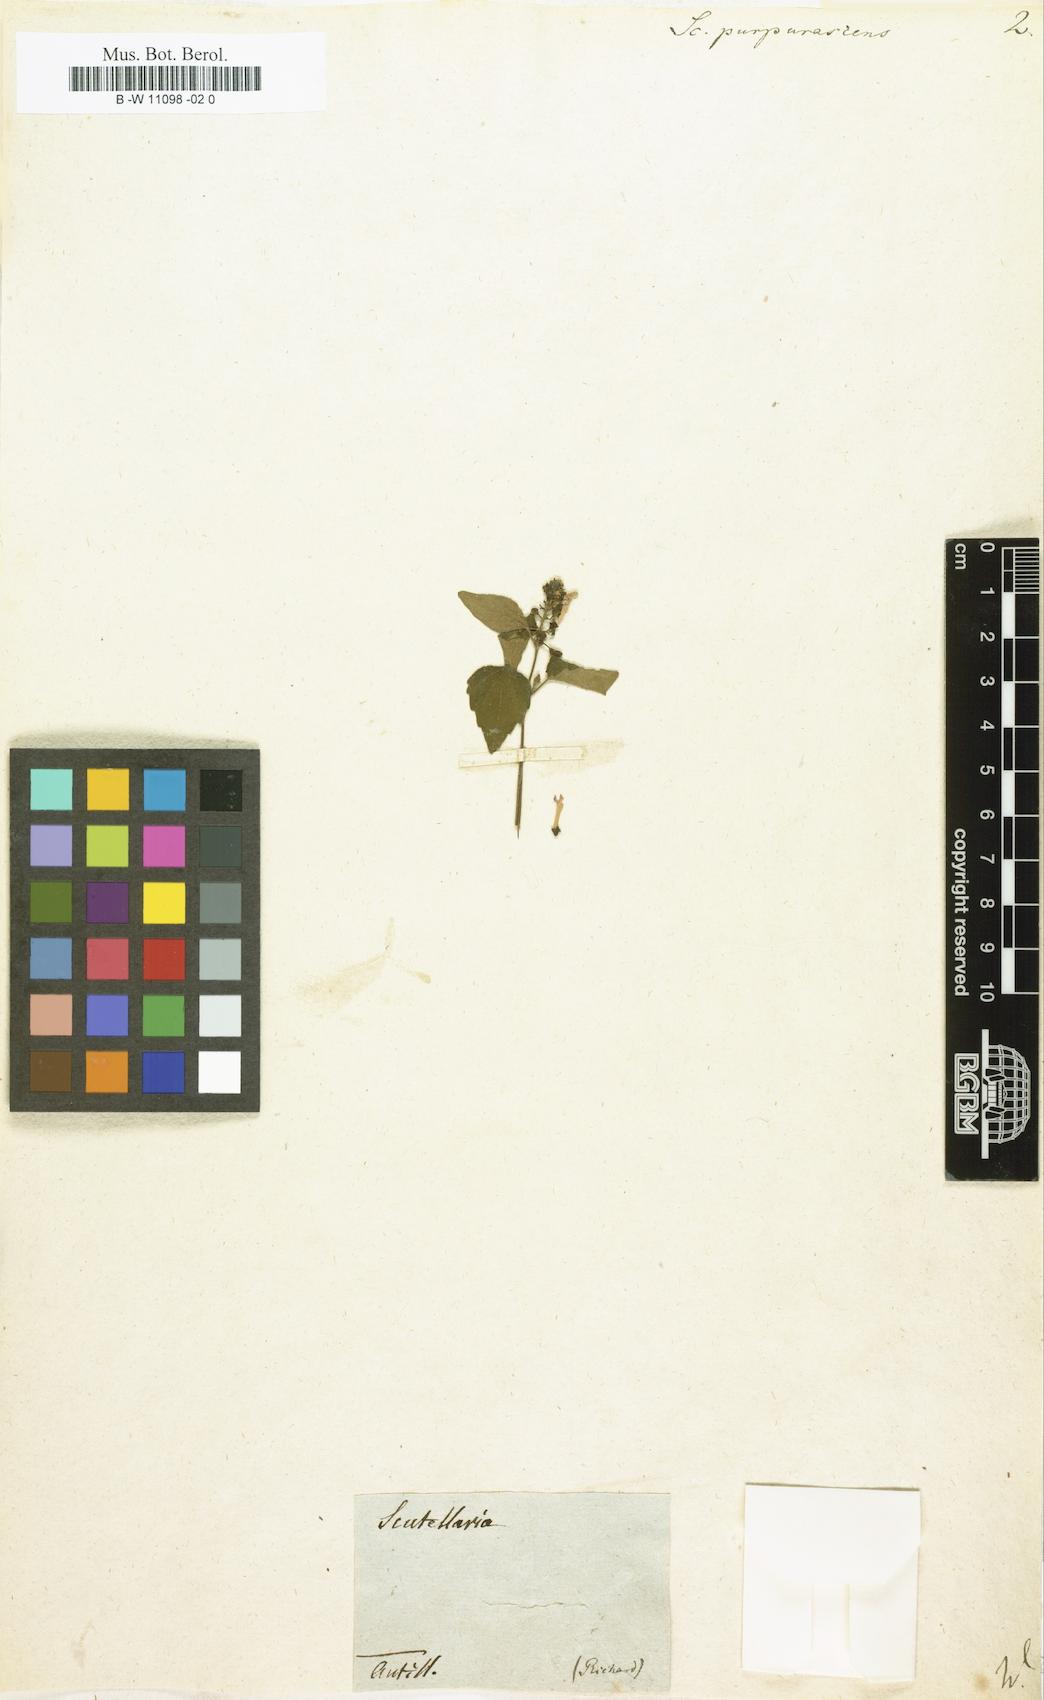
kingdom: Plantae
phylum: Tracheophyta
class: Magnoliopsida
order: Lamiales
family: Lamiaceae
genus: Scutellaria
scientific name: Scutellaria purpurascens
